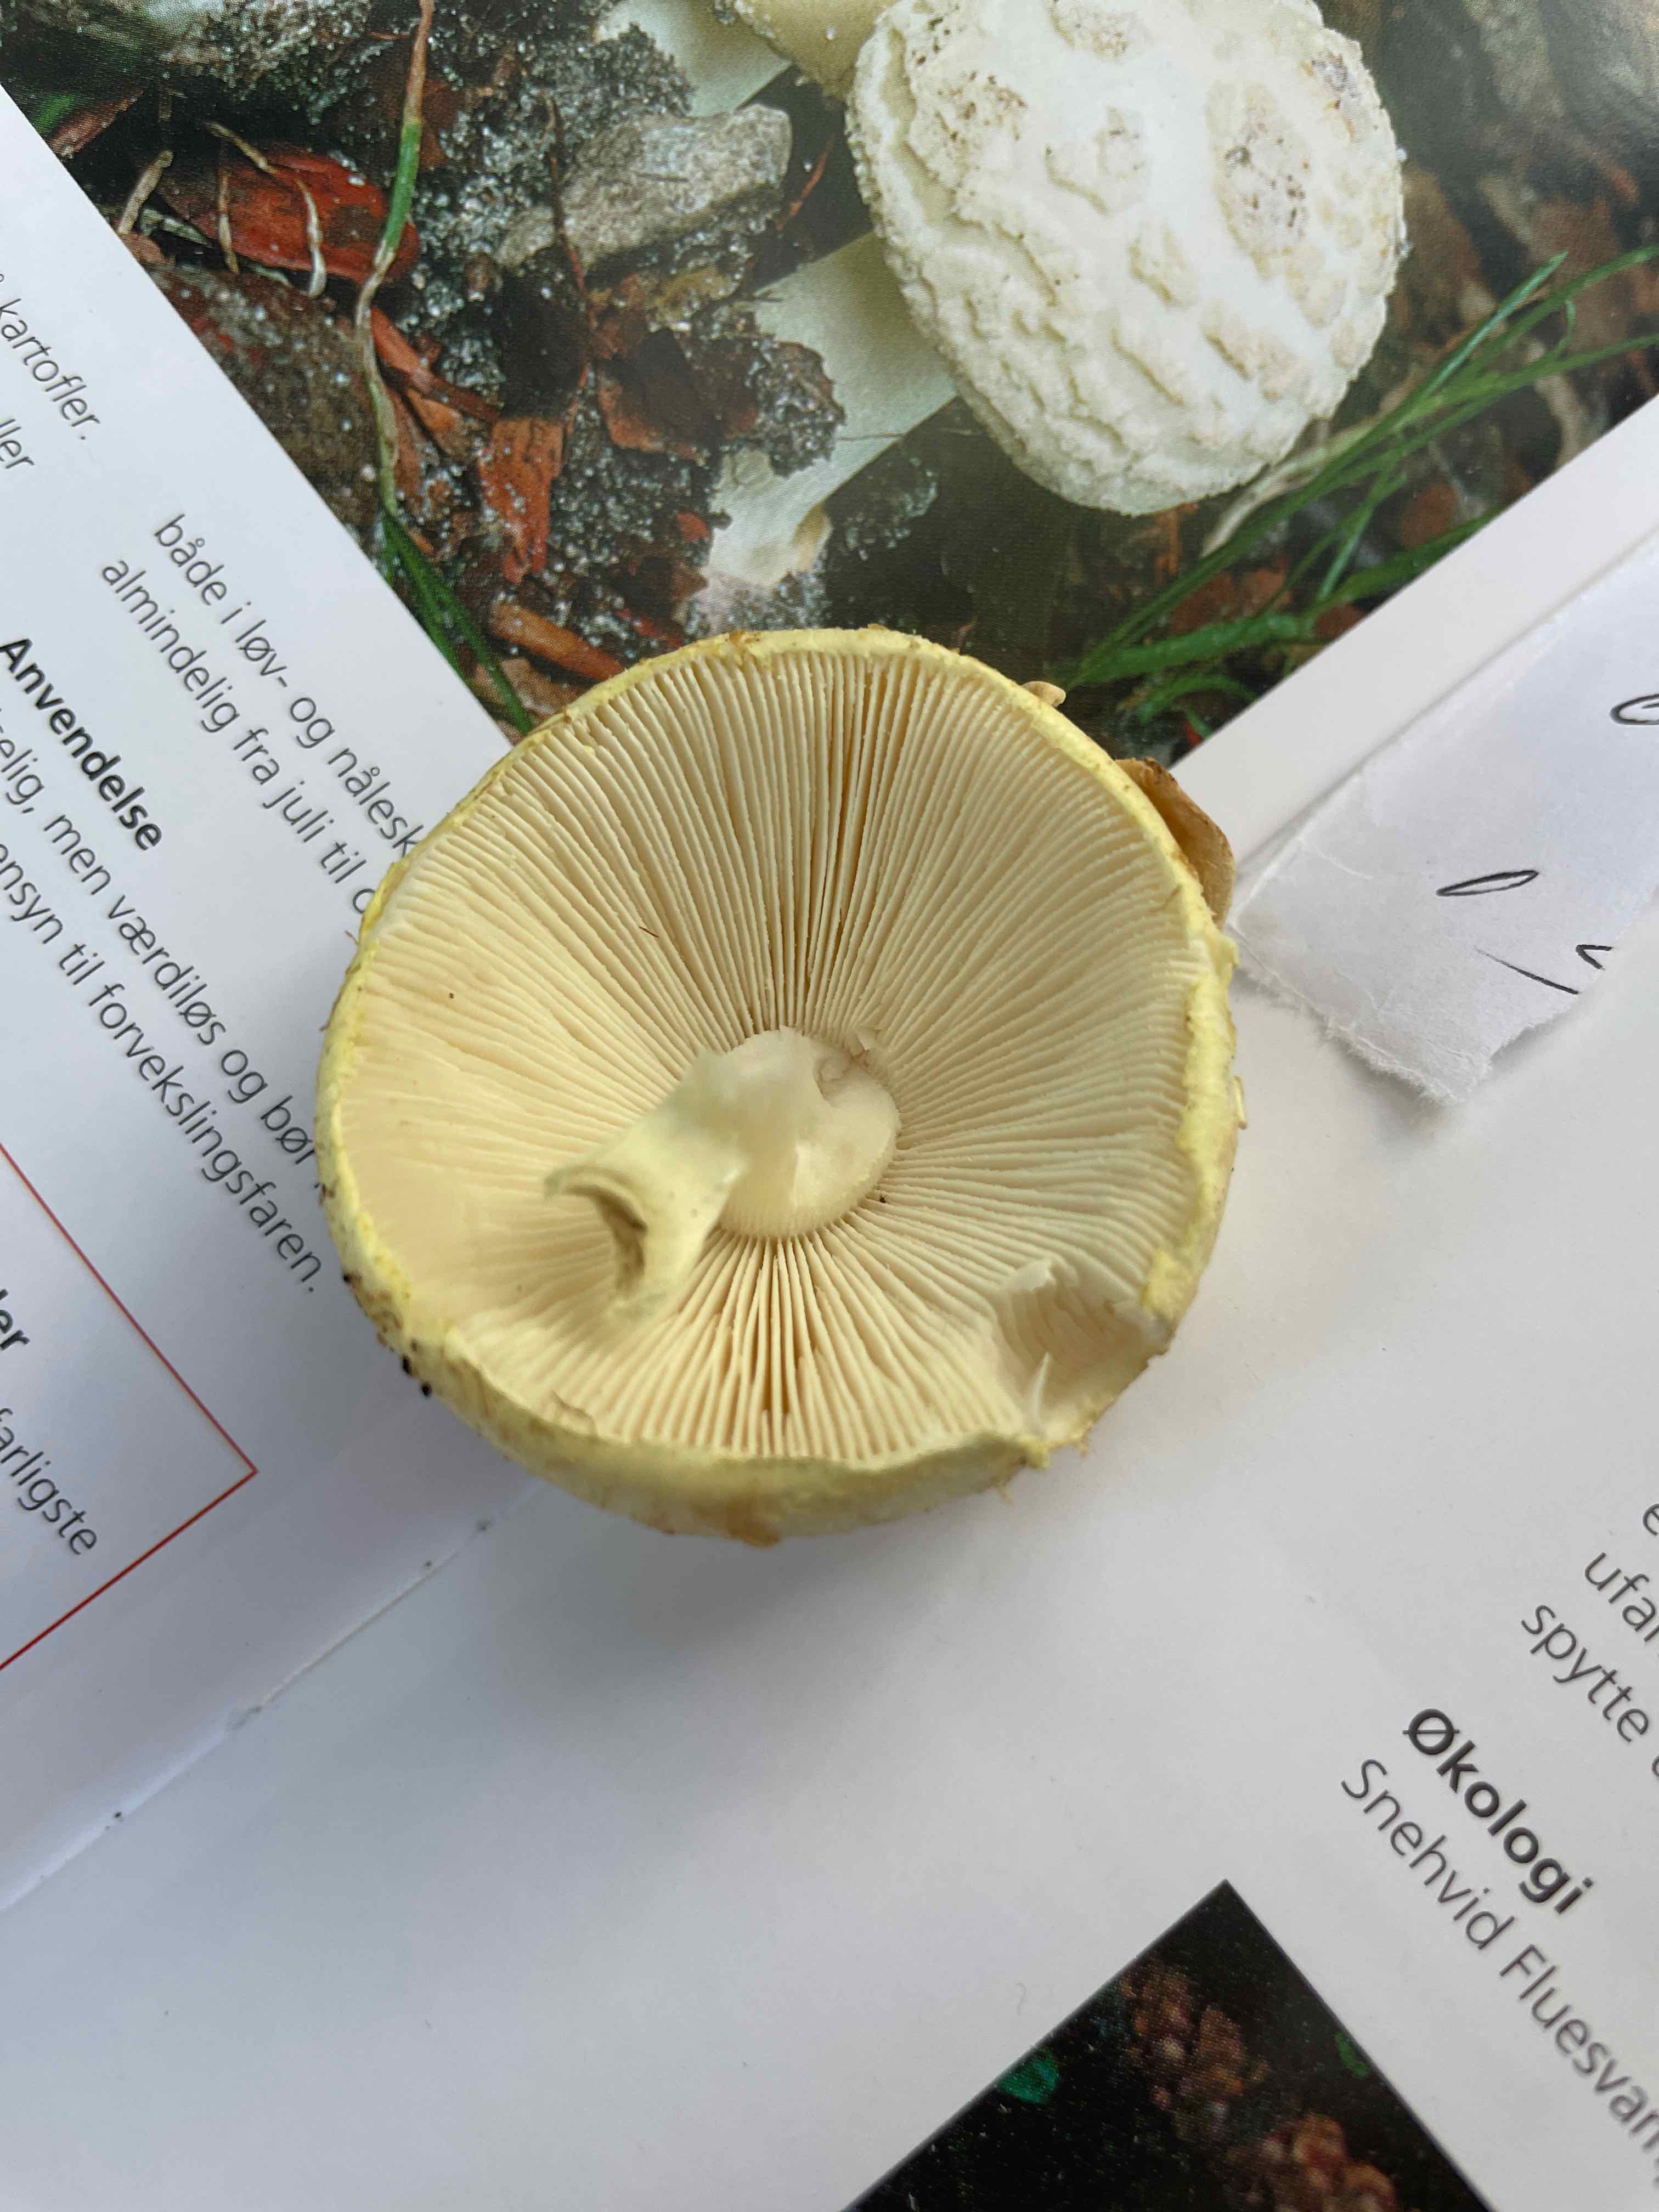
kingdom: Fungi
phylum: Basidiomycota
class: Agaricomycetes
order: Agaricales
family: Amanitaceae
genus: Amanita
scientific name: Amanita citrina
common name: kugleknoldet fluesvamp
